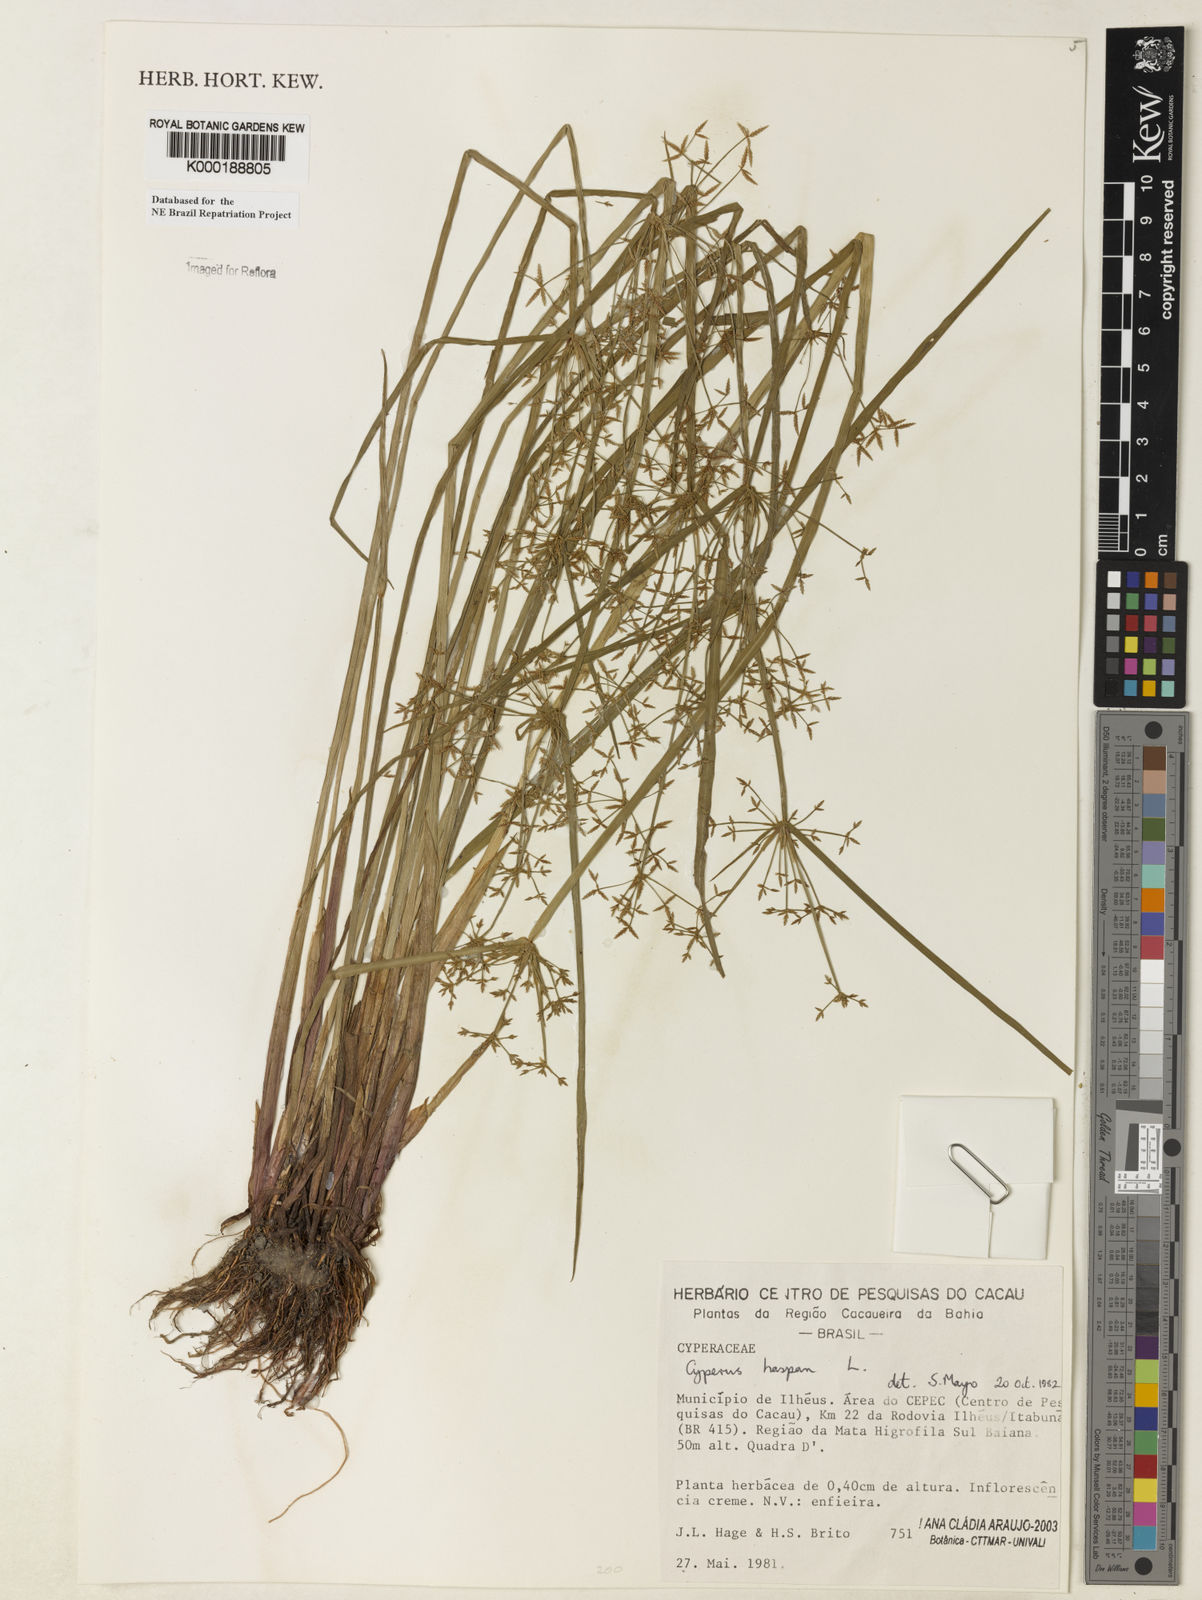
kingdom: Plantae
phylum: Tracheophyta
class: Liliopsida
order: Poales
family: Cyperaceae
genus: Cyperus
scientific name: Cyperus haspan
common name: Haspan flatsedge
